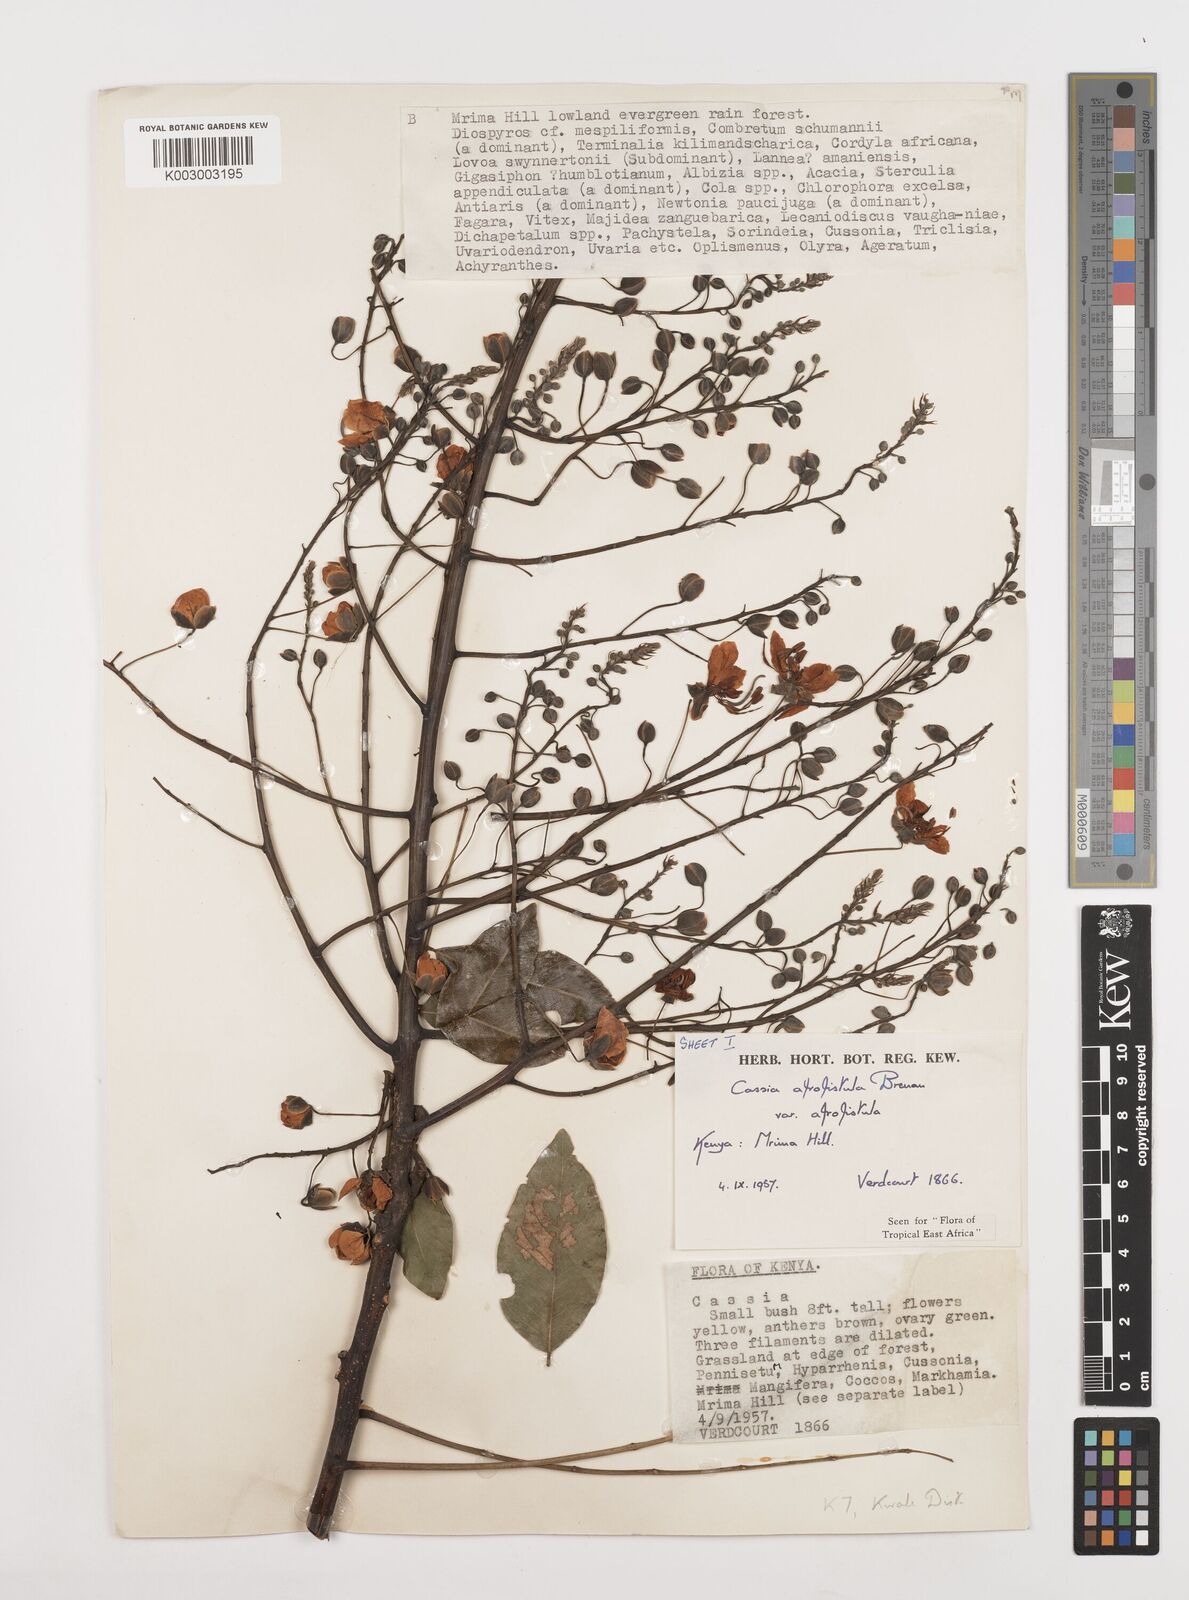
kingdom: Plantae
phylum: Tracheophyta
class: Magnoliopsida
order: Fabales
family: Fabaceae
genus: Cassia
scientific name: Cassia afrofistula
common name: Kenyan shower
